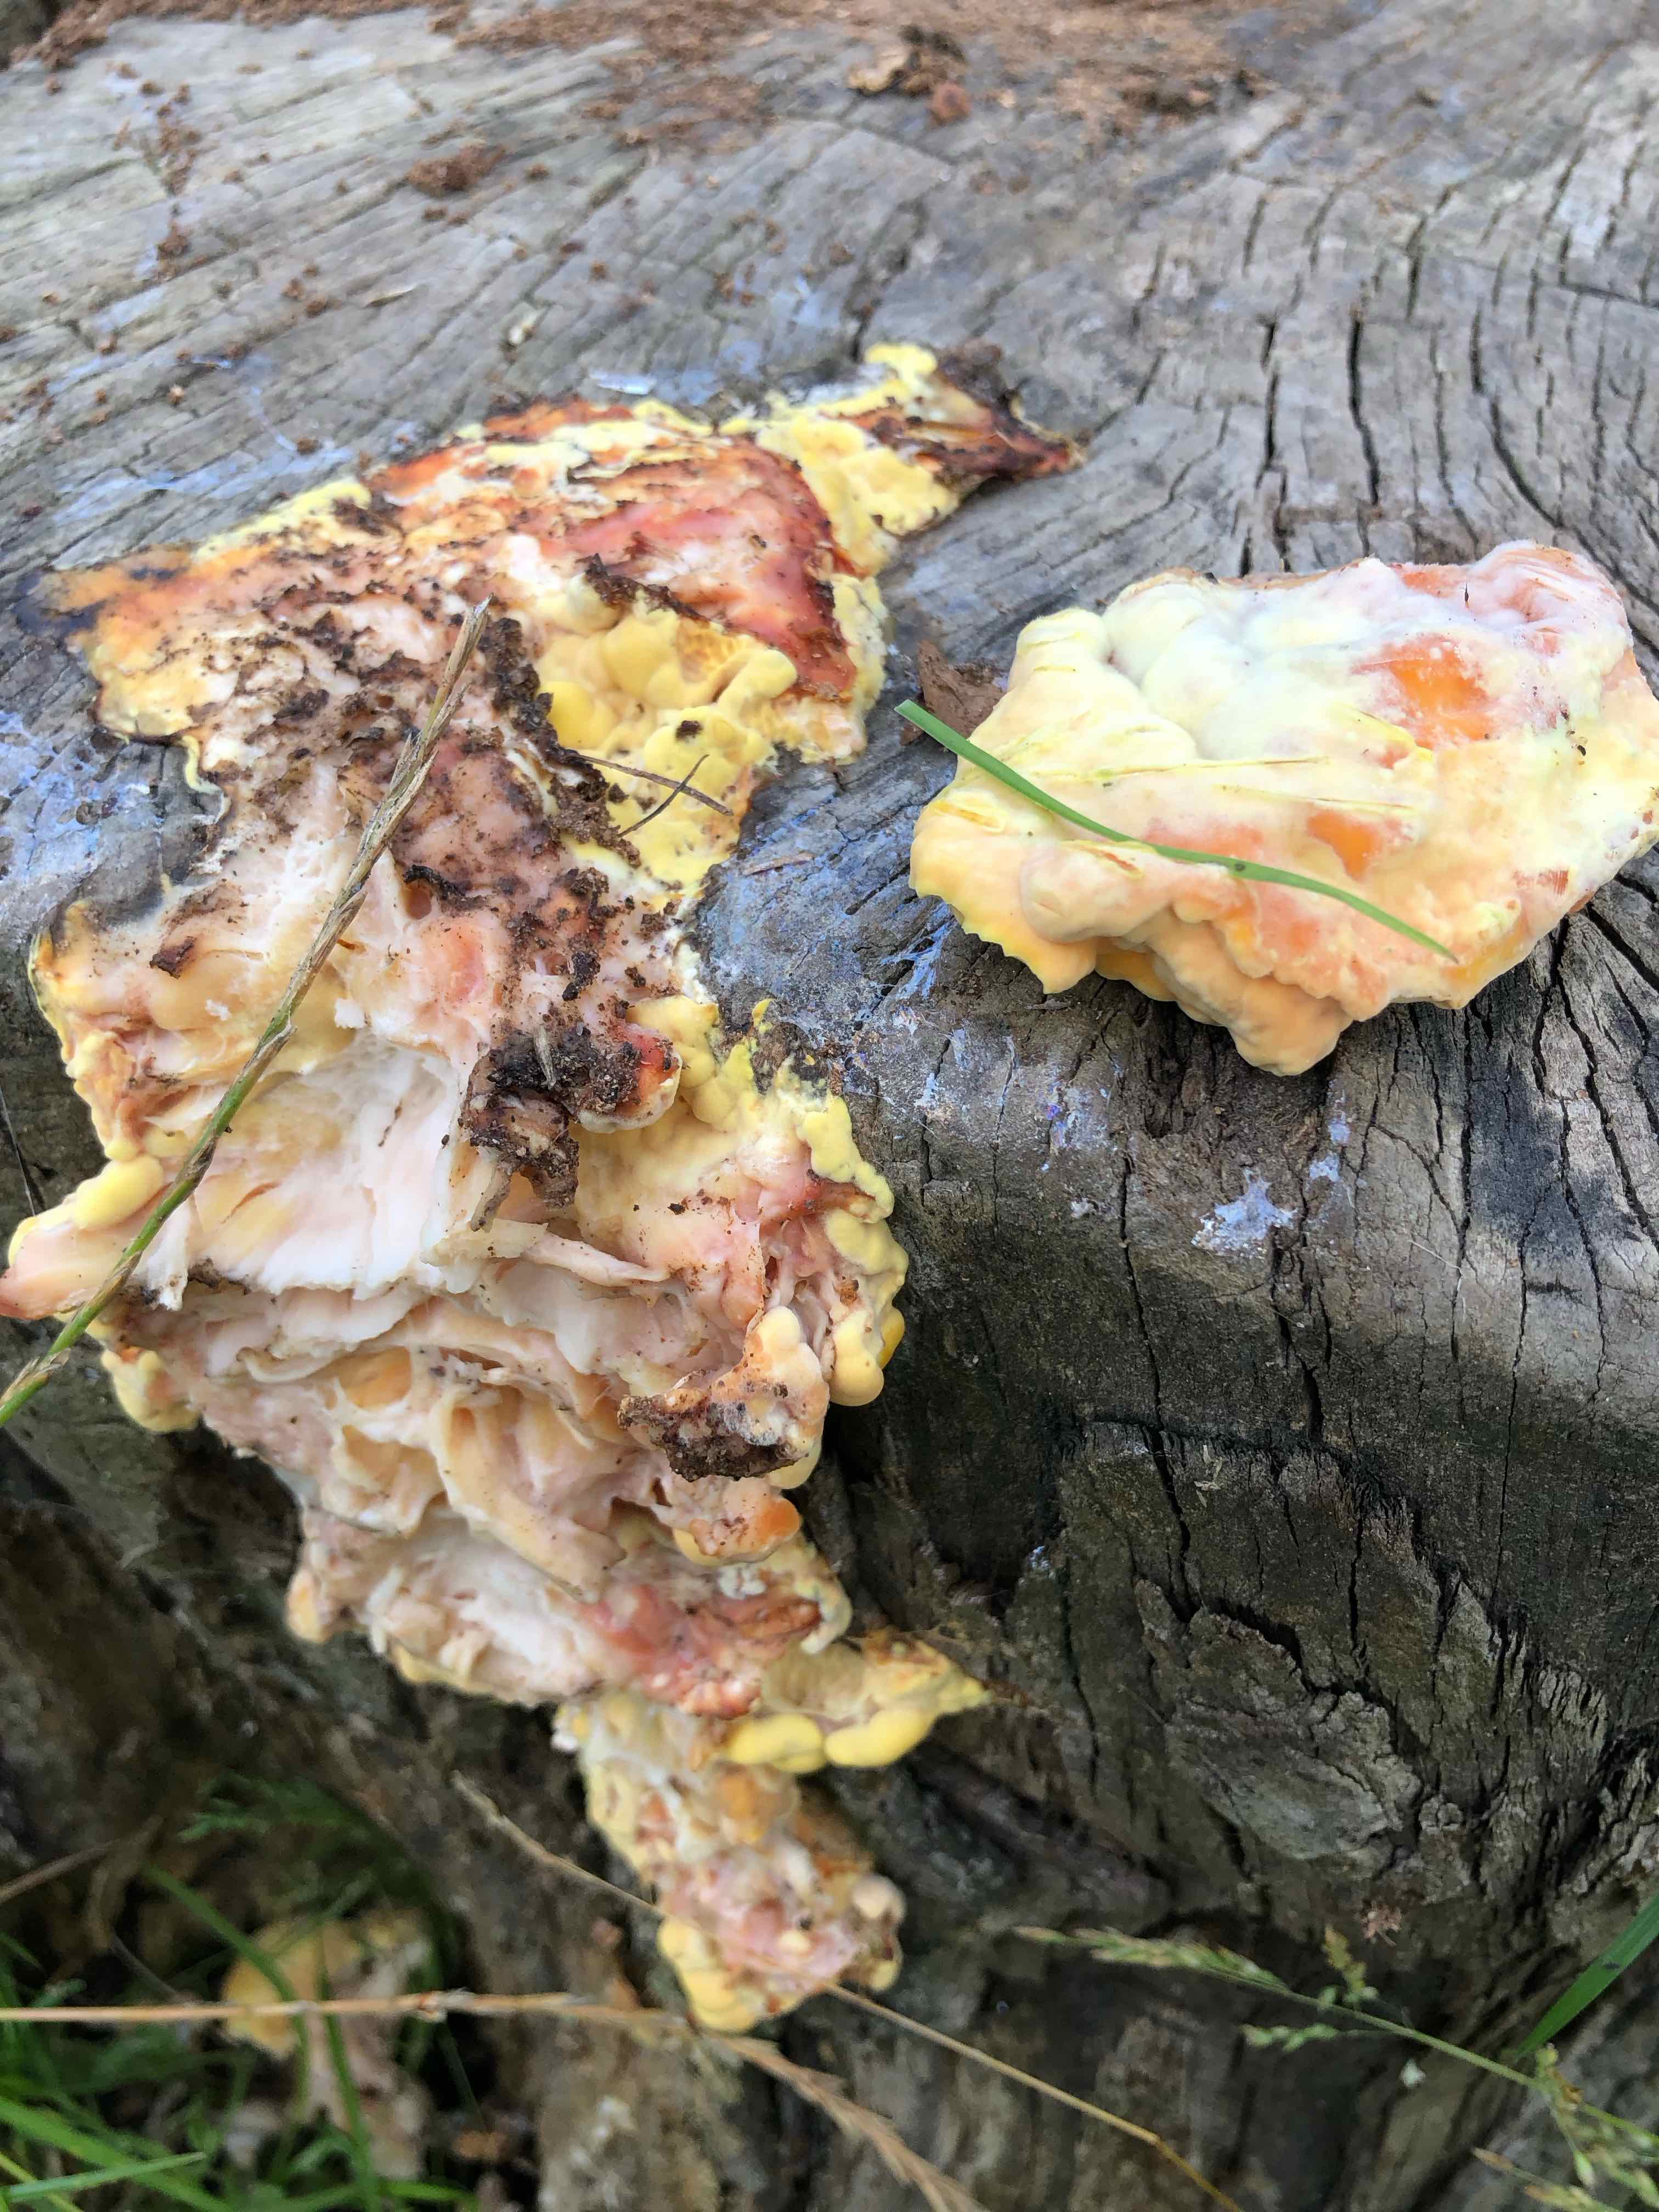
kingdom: Fungi
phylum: Basidiomycota
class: Agaricomycetes
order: Polyporales
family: Laetiporaceae
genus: Laetiporus
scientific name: Laetiporus sulphureus
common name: svovlporesvamp
